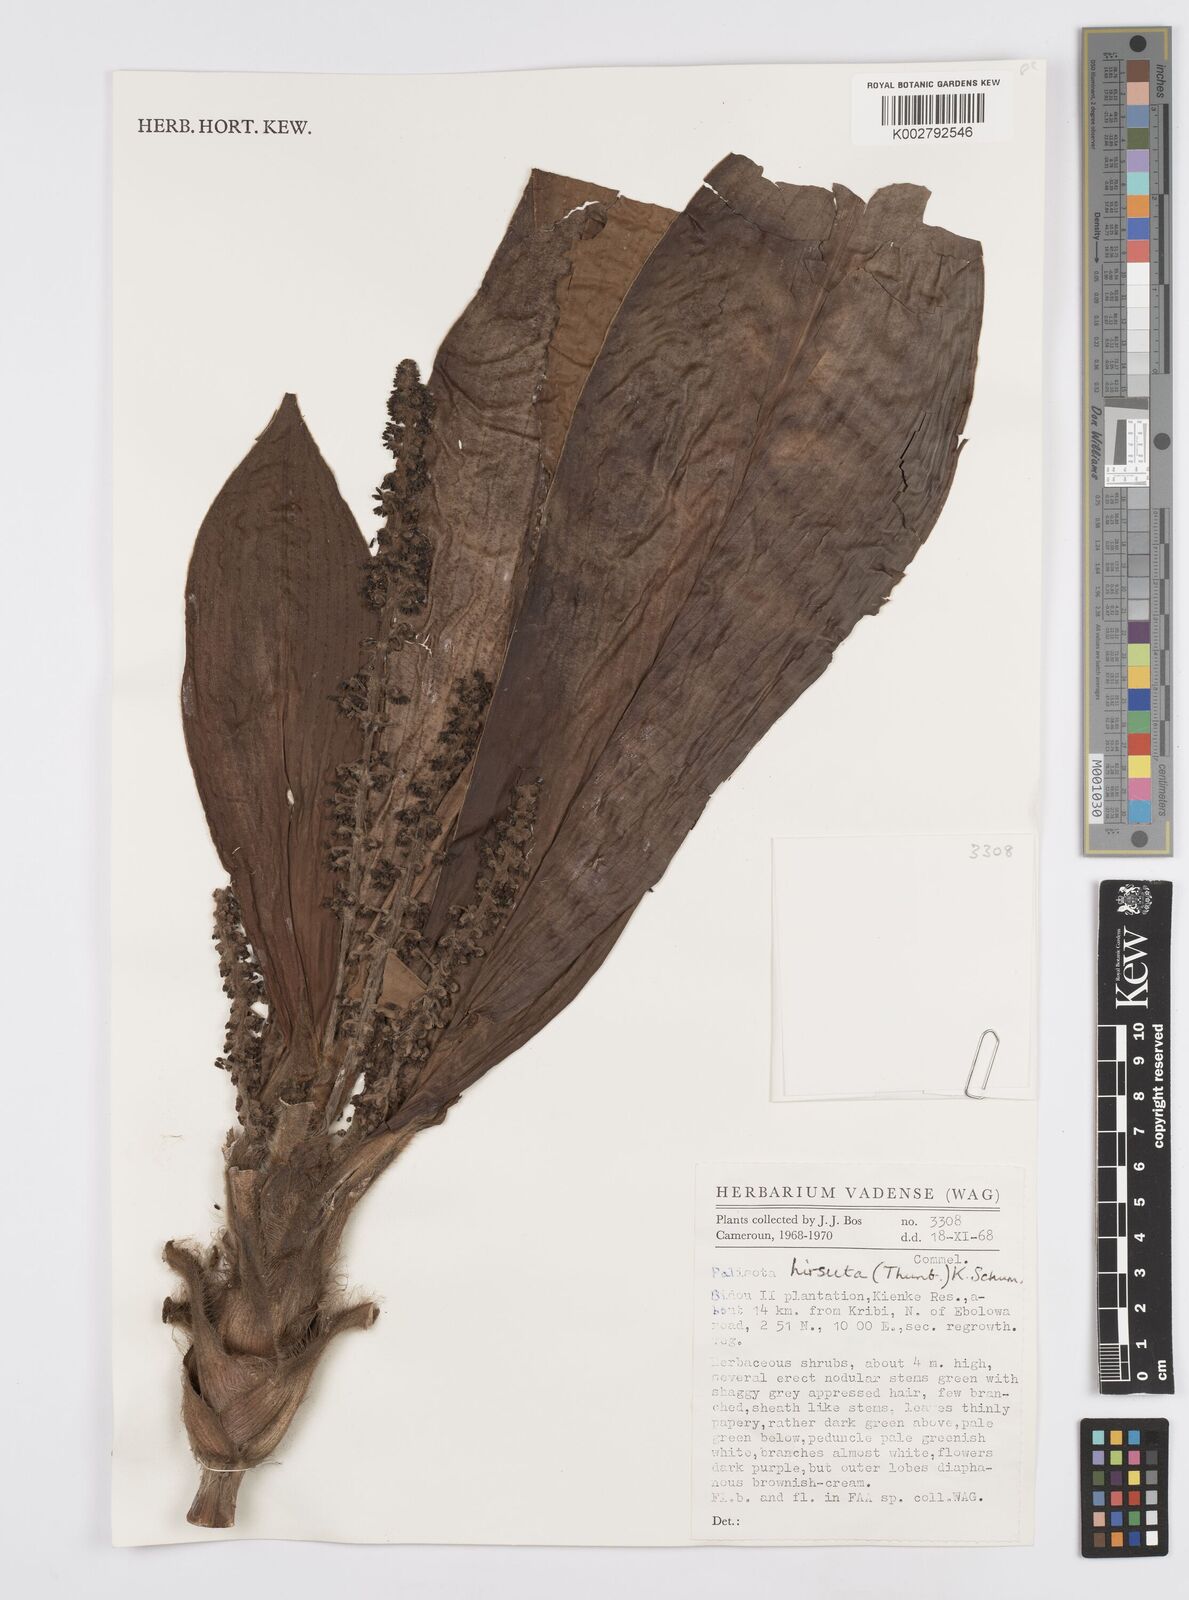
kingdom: Plantae
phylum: Tracheophyta
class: Liliopsida
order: Commelinales
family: Commelinaceae
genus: Palisota
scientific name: Palisota hirsuta
